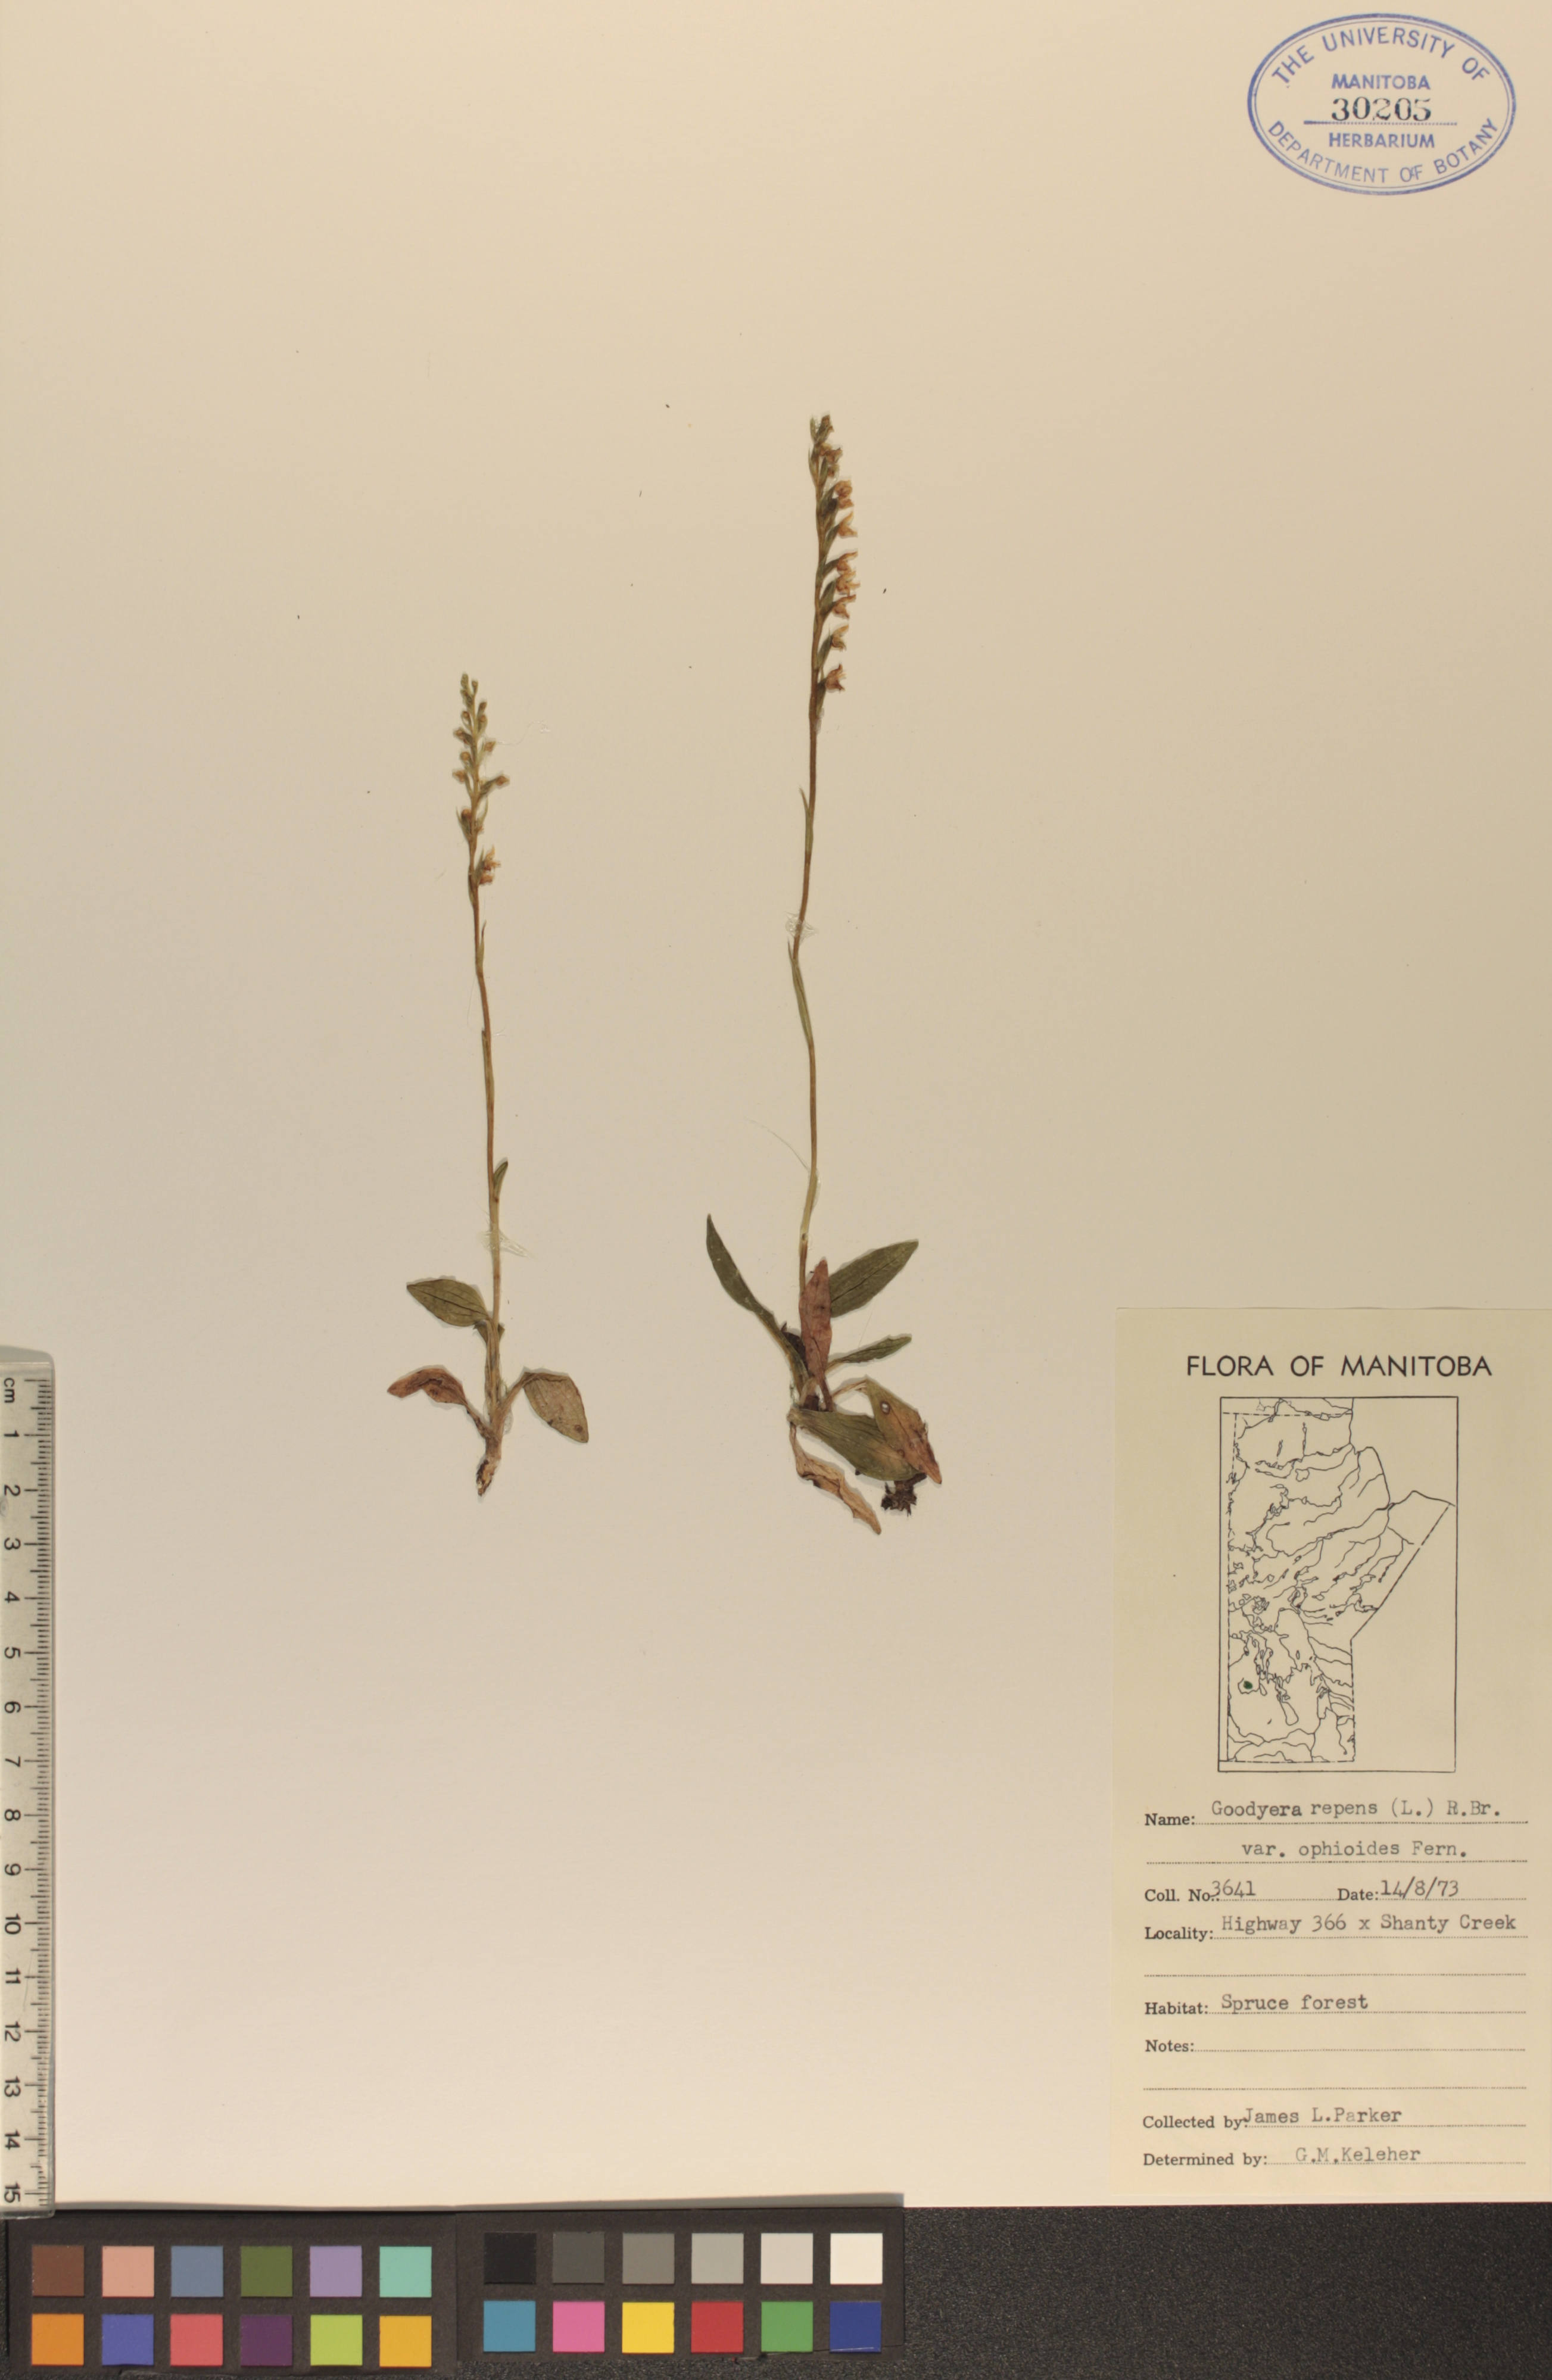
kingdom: Plantae
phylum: Tracheophyta
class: Liliopsida
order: Asparagales
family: Orchidaceae
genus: Goodyera
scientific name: Goodyera repens
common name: Creeping lady's-tresses
